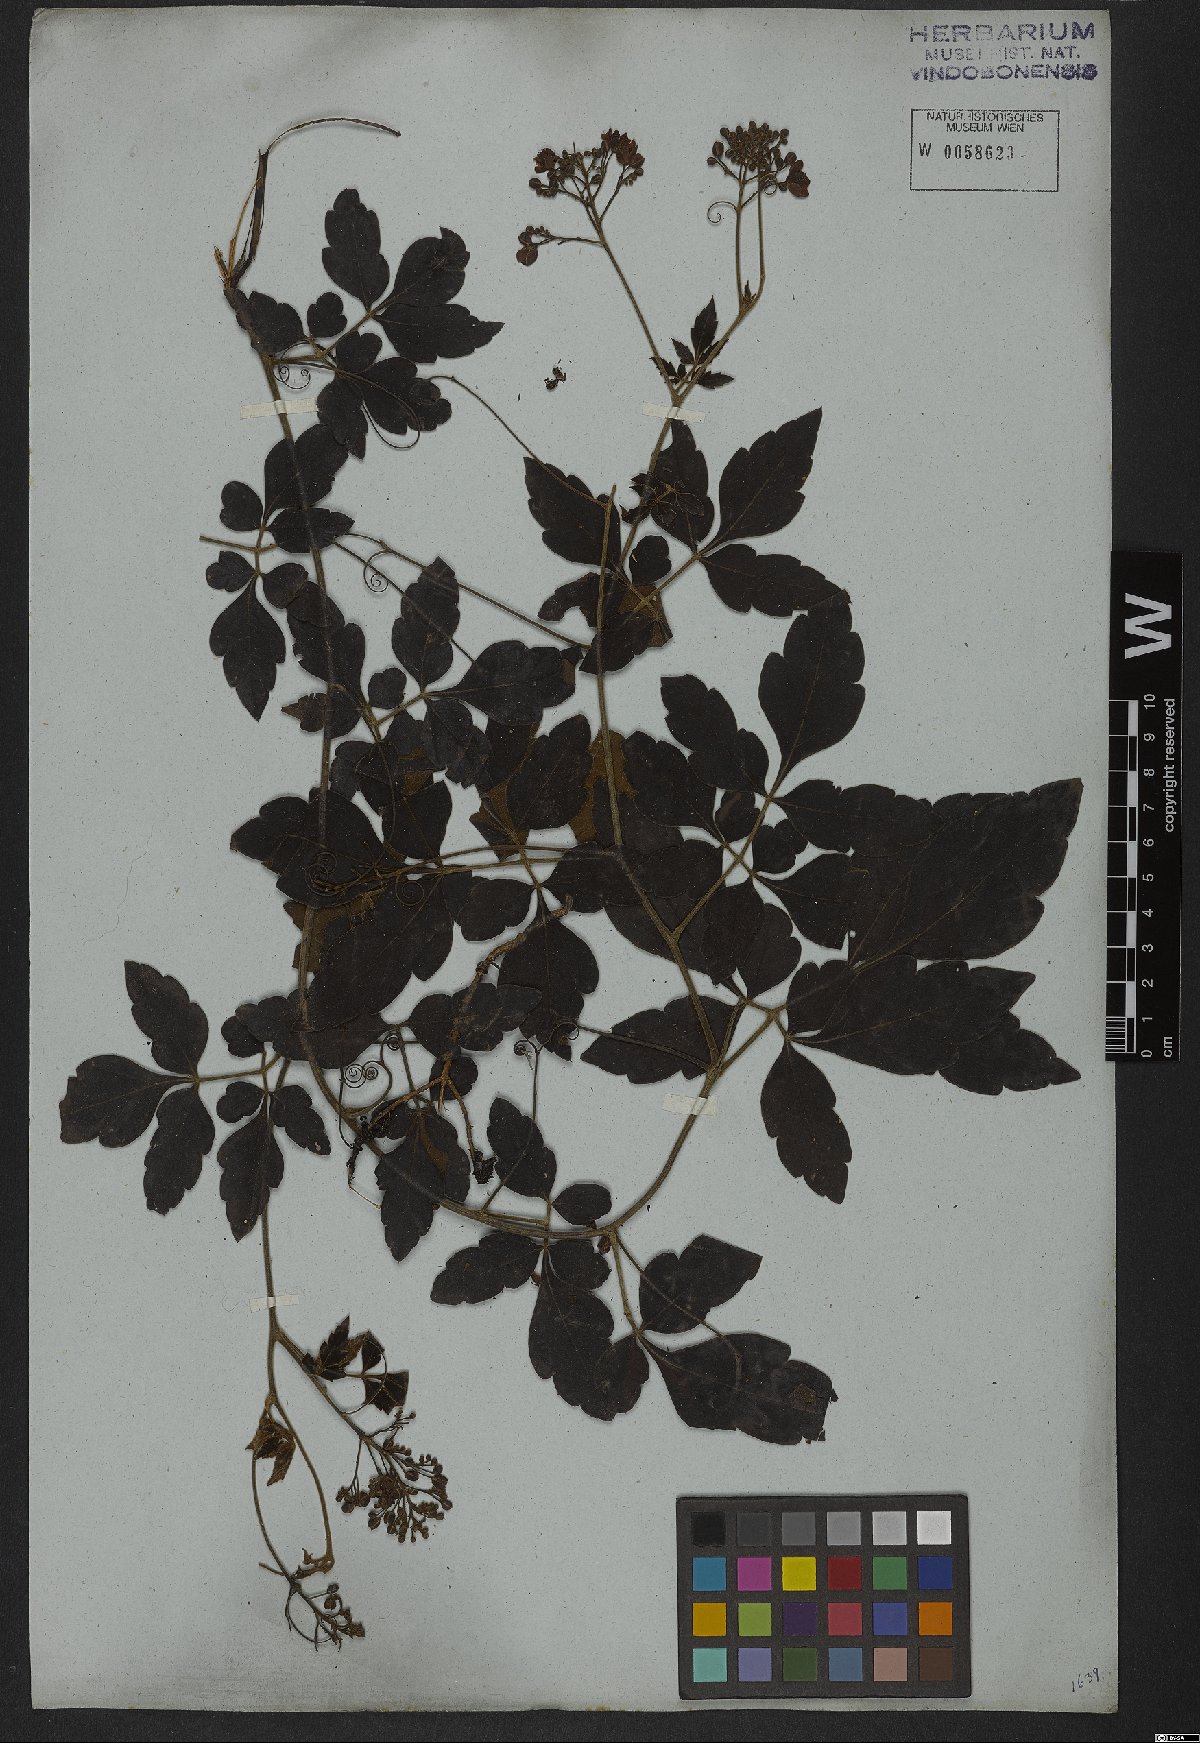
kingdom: Plantae
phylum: Tracheophyta
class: Magnoliopsida
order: Sapindales
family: Sapindaceae
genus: Serjania
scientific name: Serjania velutina
